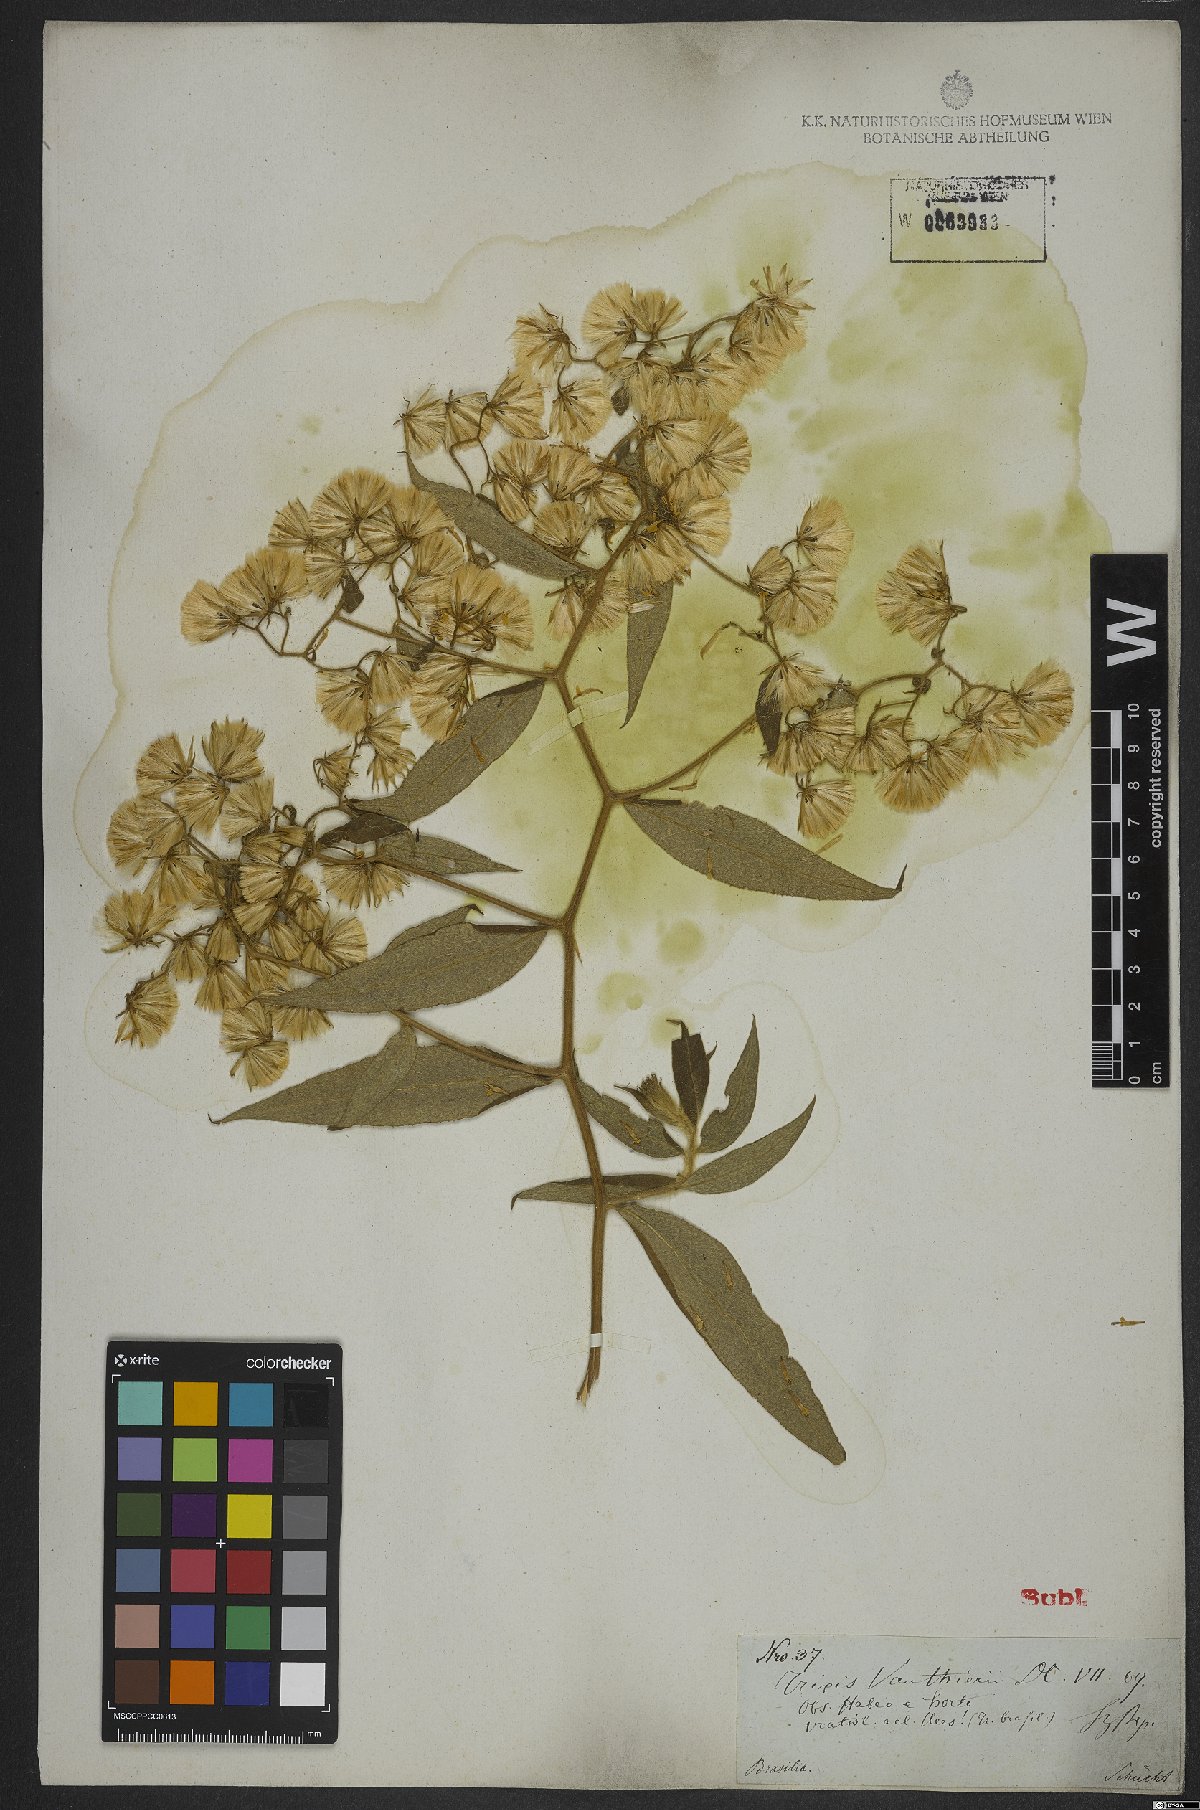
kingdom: Plantae
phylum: Tracheophyta
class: Magnoliopsida
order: Asterales
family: Asteraceae
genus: Trixis
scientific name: Trixis vauthieri
